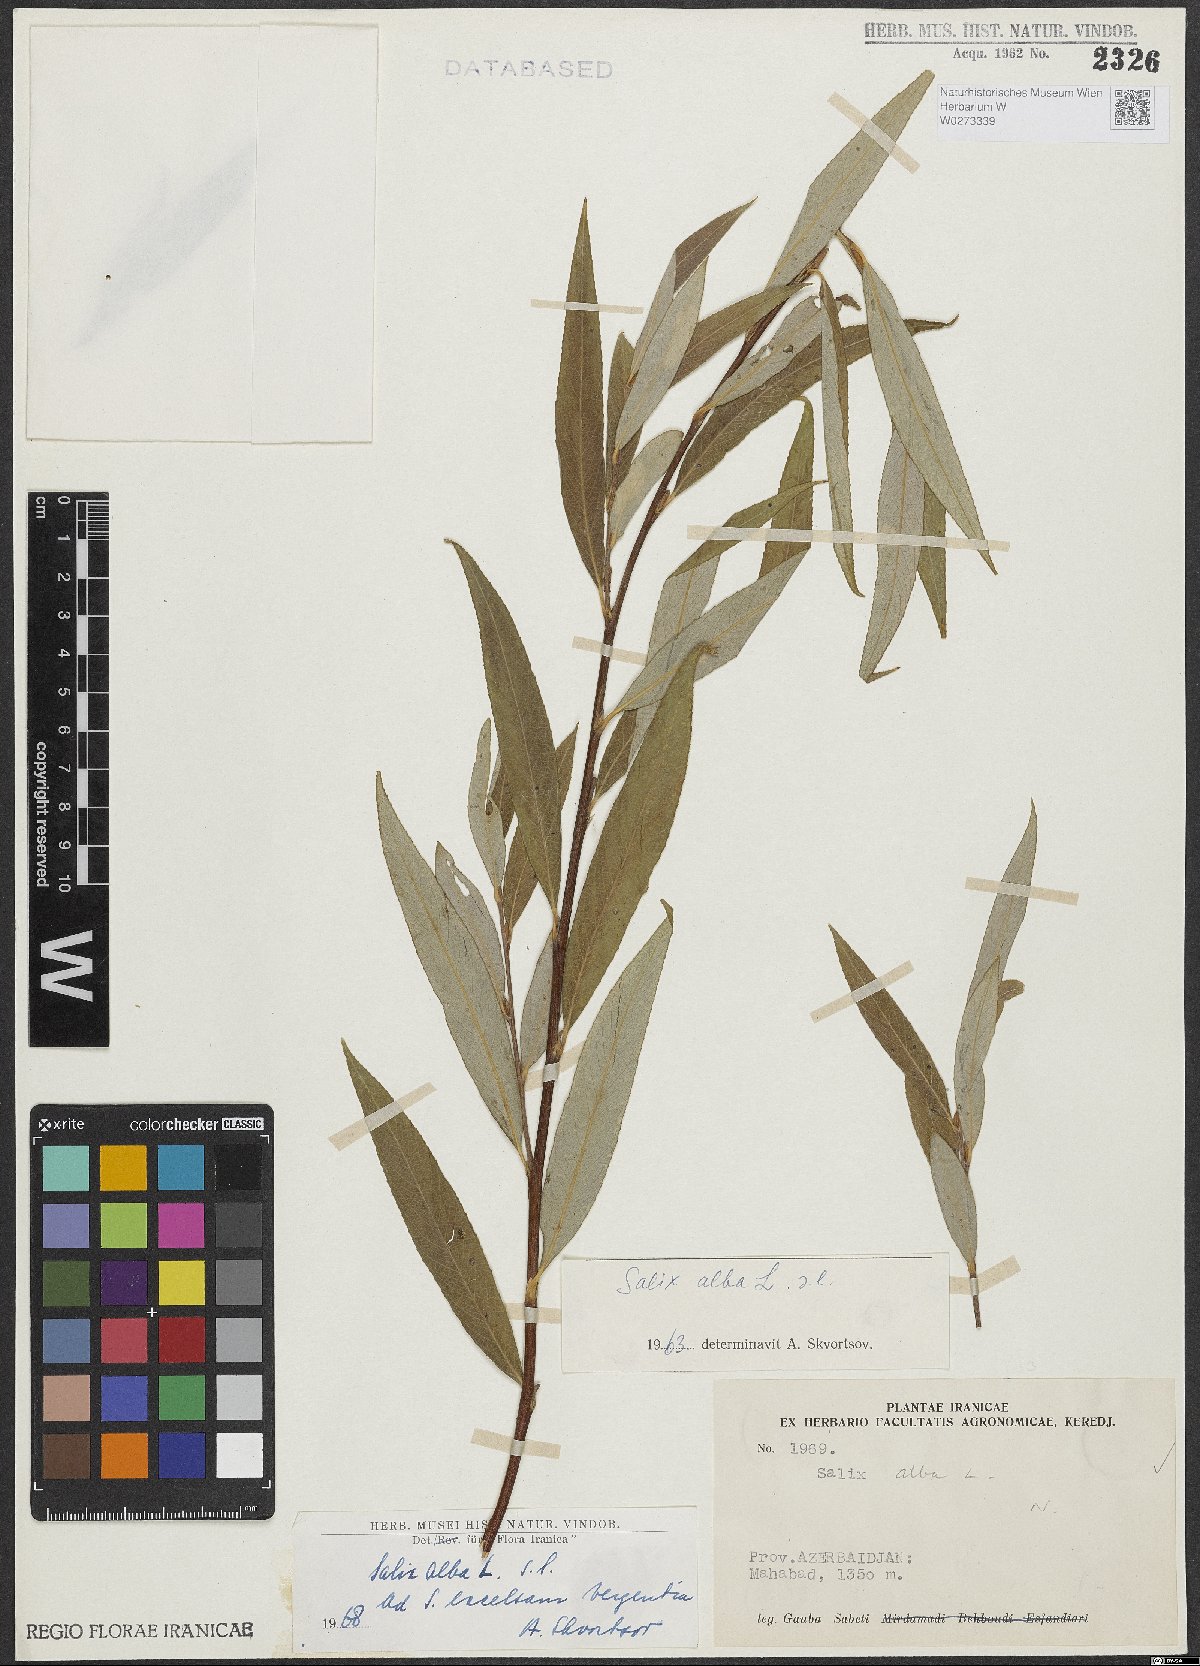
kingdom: Plantae
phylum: Tracheophyta
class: Magnoliopsida
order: Malpighiales
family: Salicaceae
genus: Salix
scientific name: Salix alba
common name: White willow
